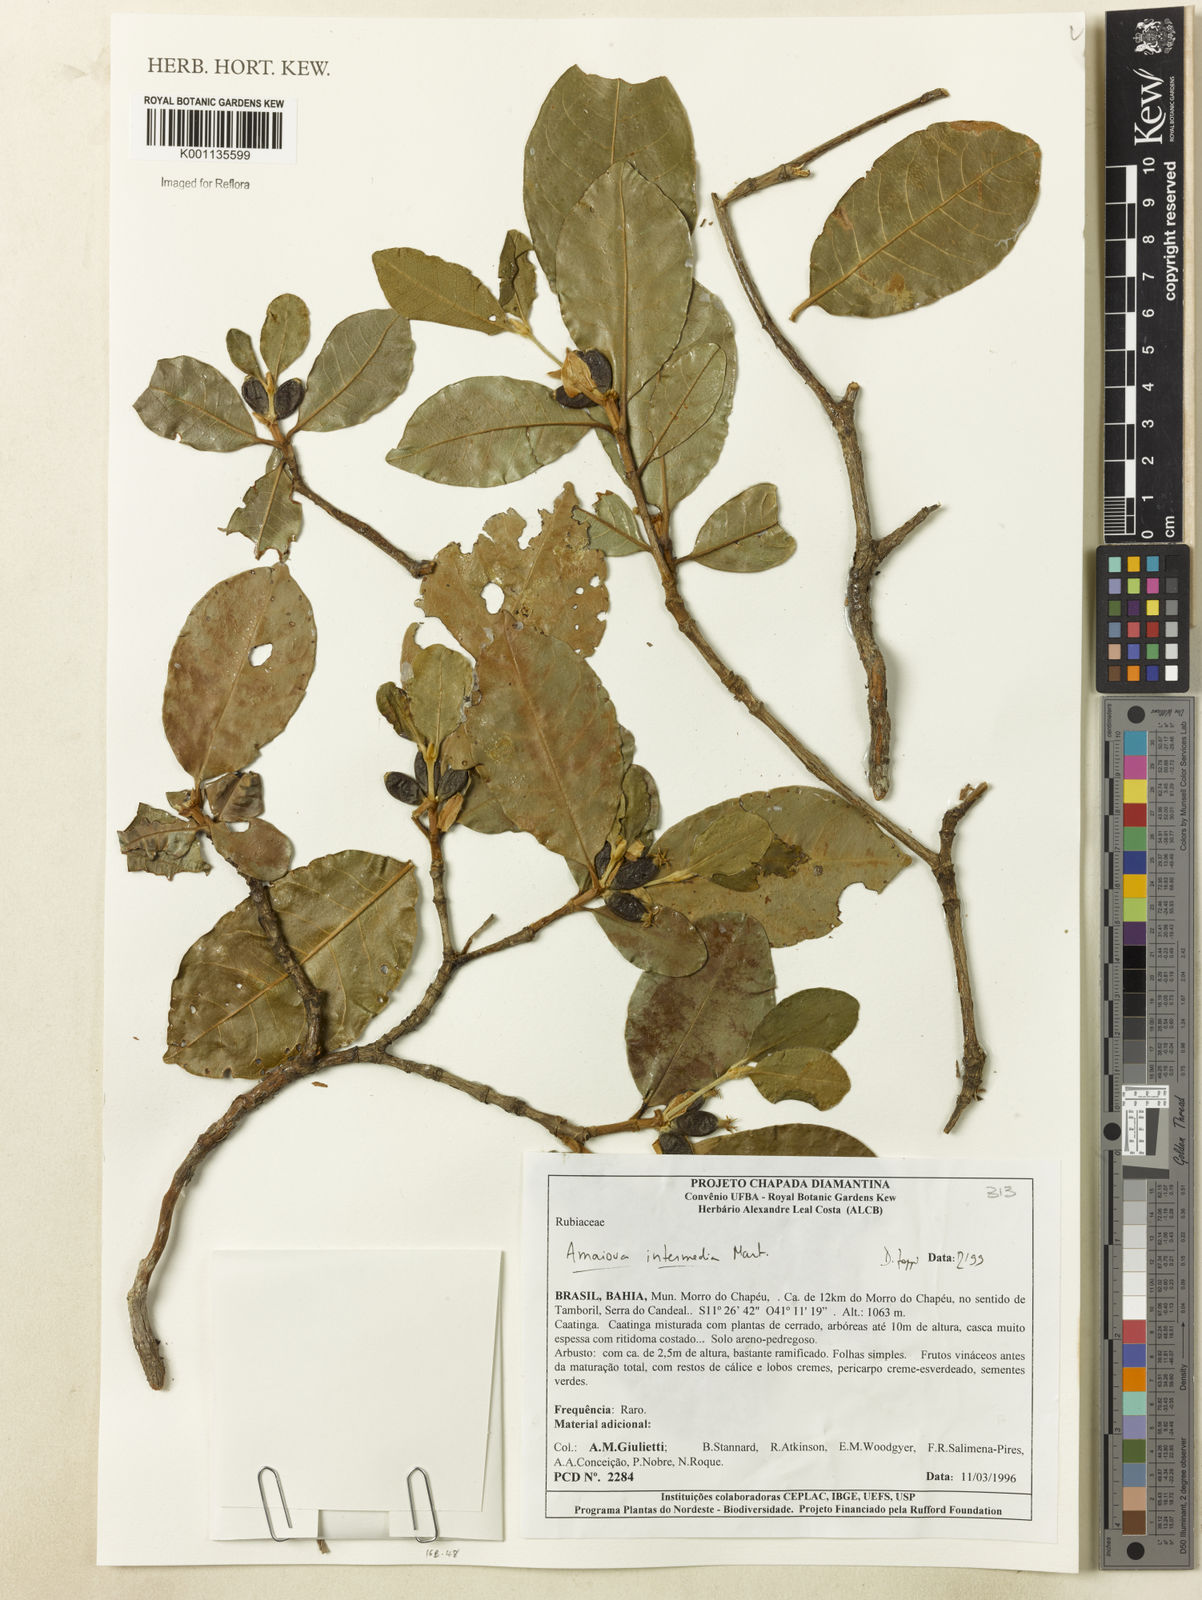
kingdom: Plantae
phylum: Tracheophyta
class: Magnoliopsida
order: Gentianales
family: Rubiaceae
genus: Amaioua
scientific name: Amaioua intermedia
